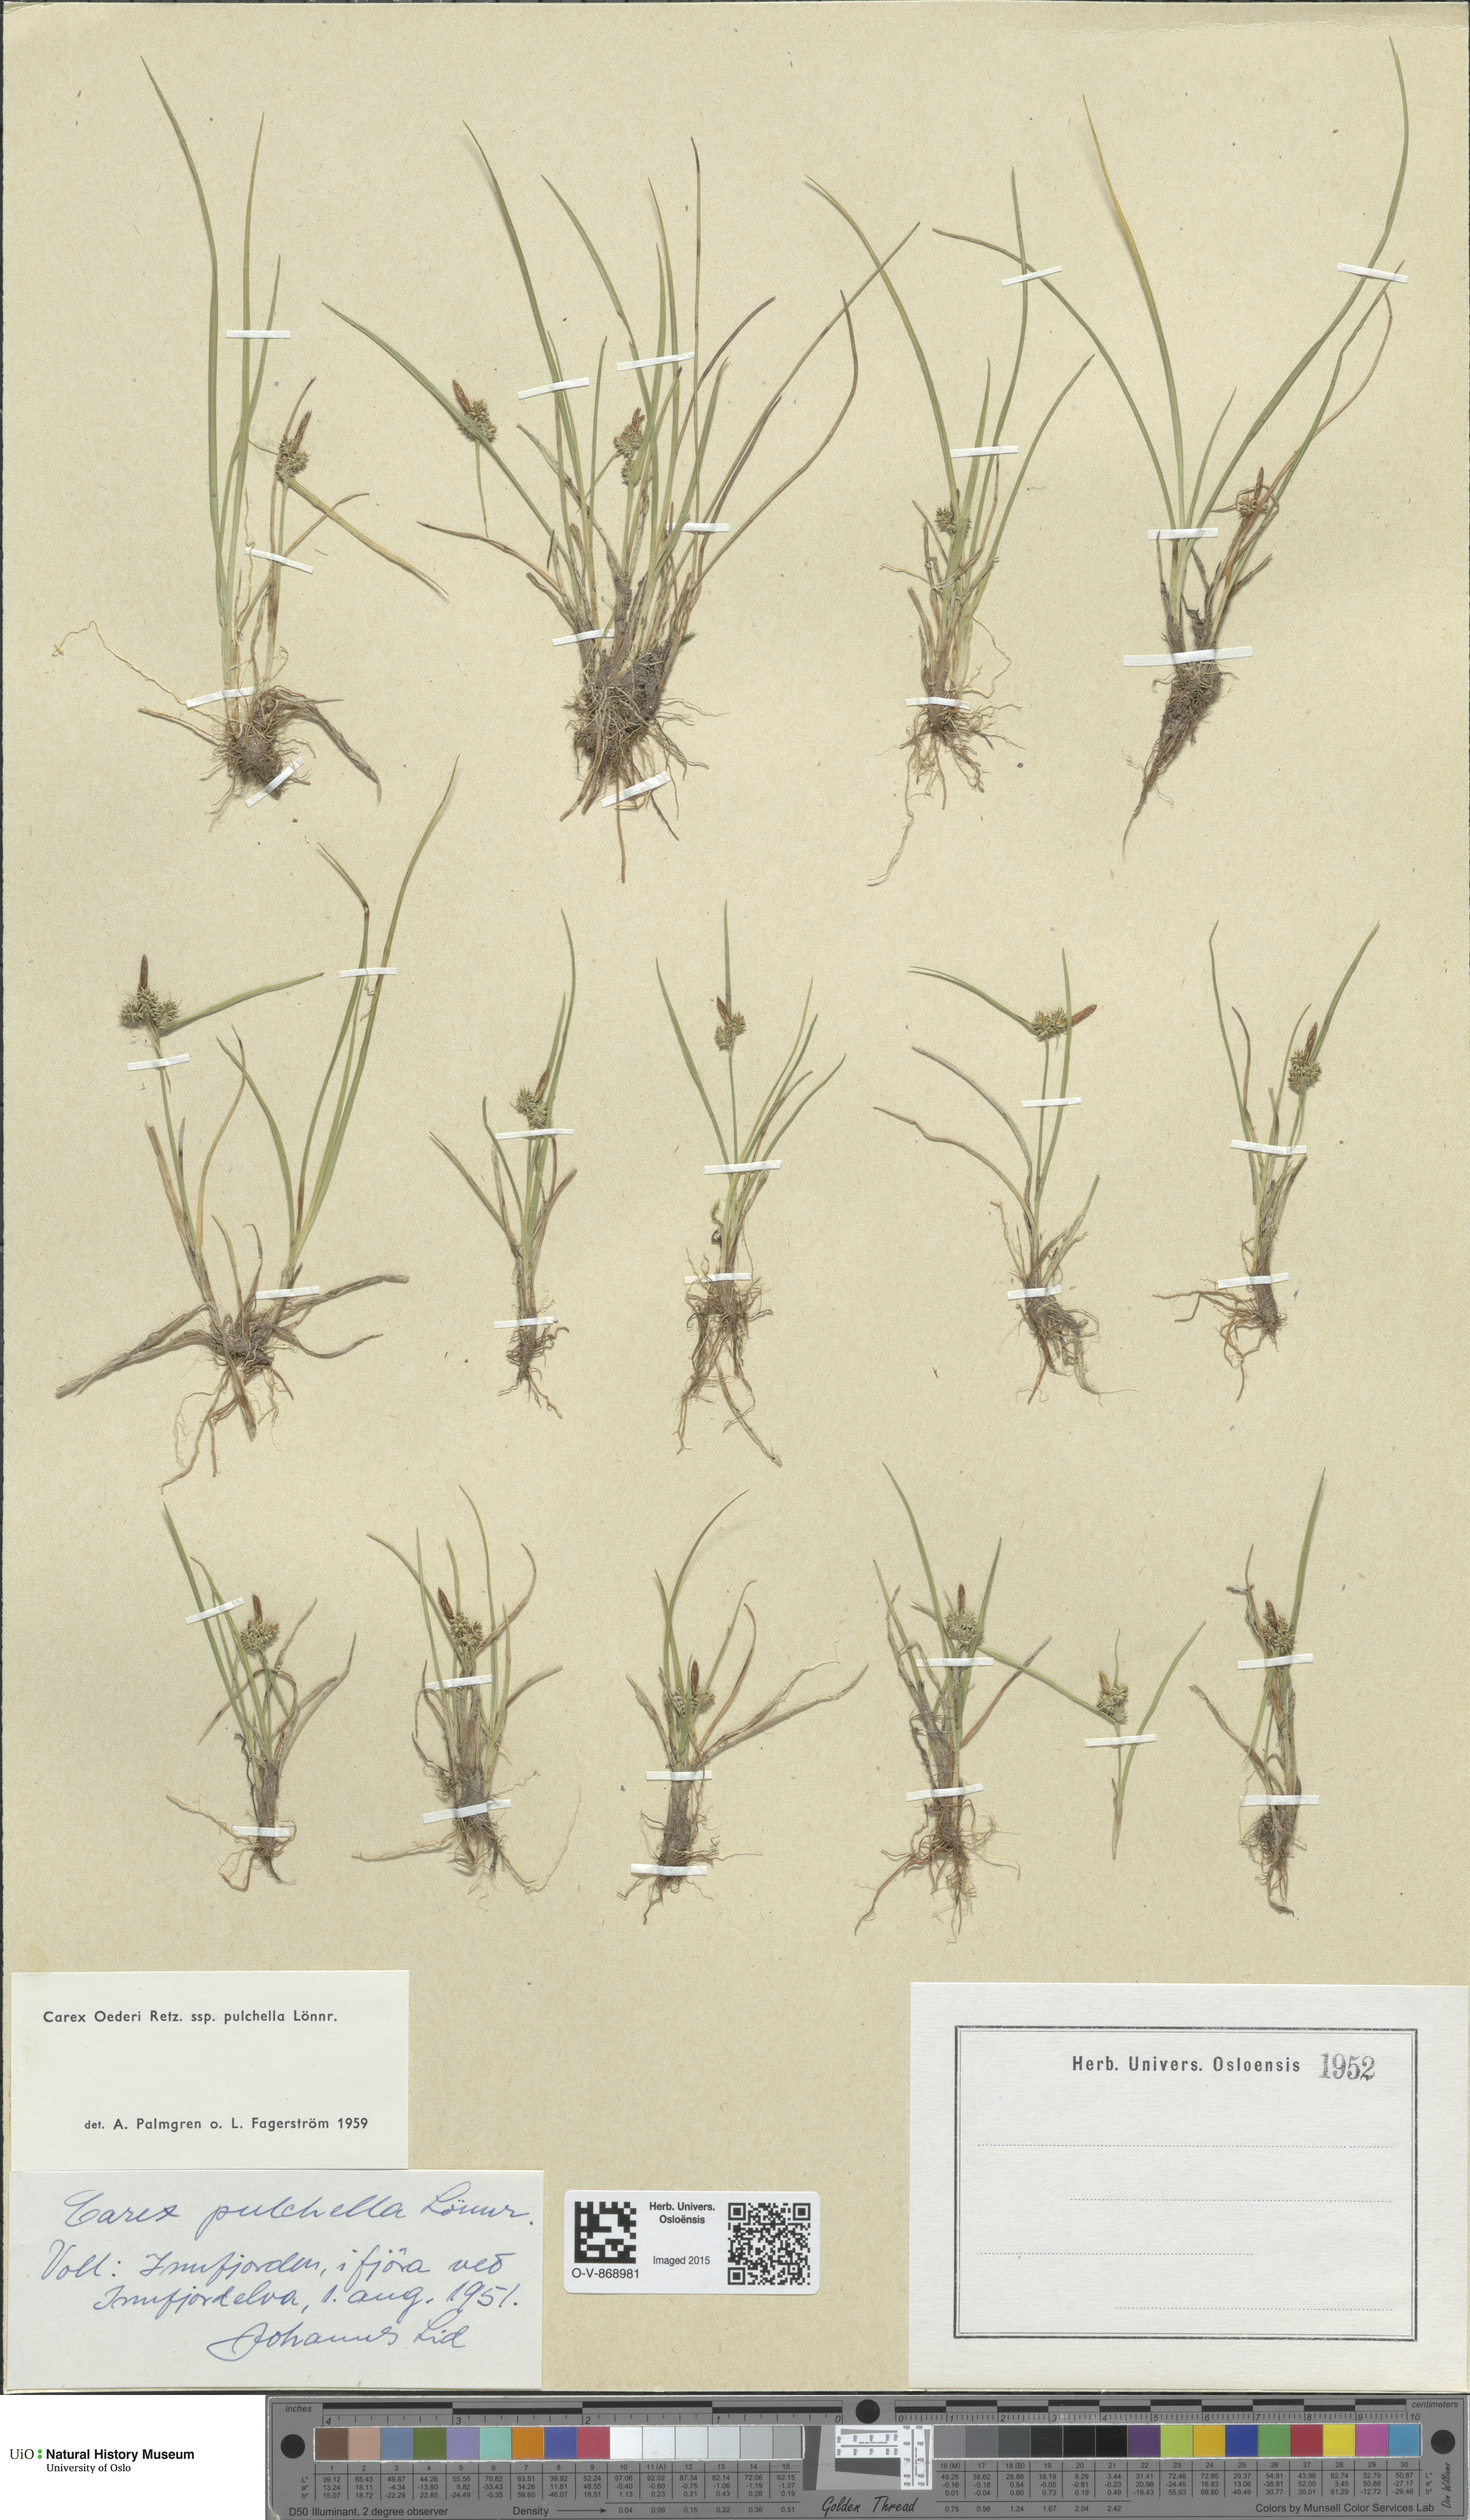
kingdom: Plantae
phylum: Tracheophyta
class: Liliopsida
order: Poales
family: Cyperaceae
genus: Carex
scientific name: Carex oederi
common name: Common & small-fruited yellow-sedge
